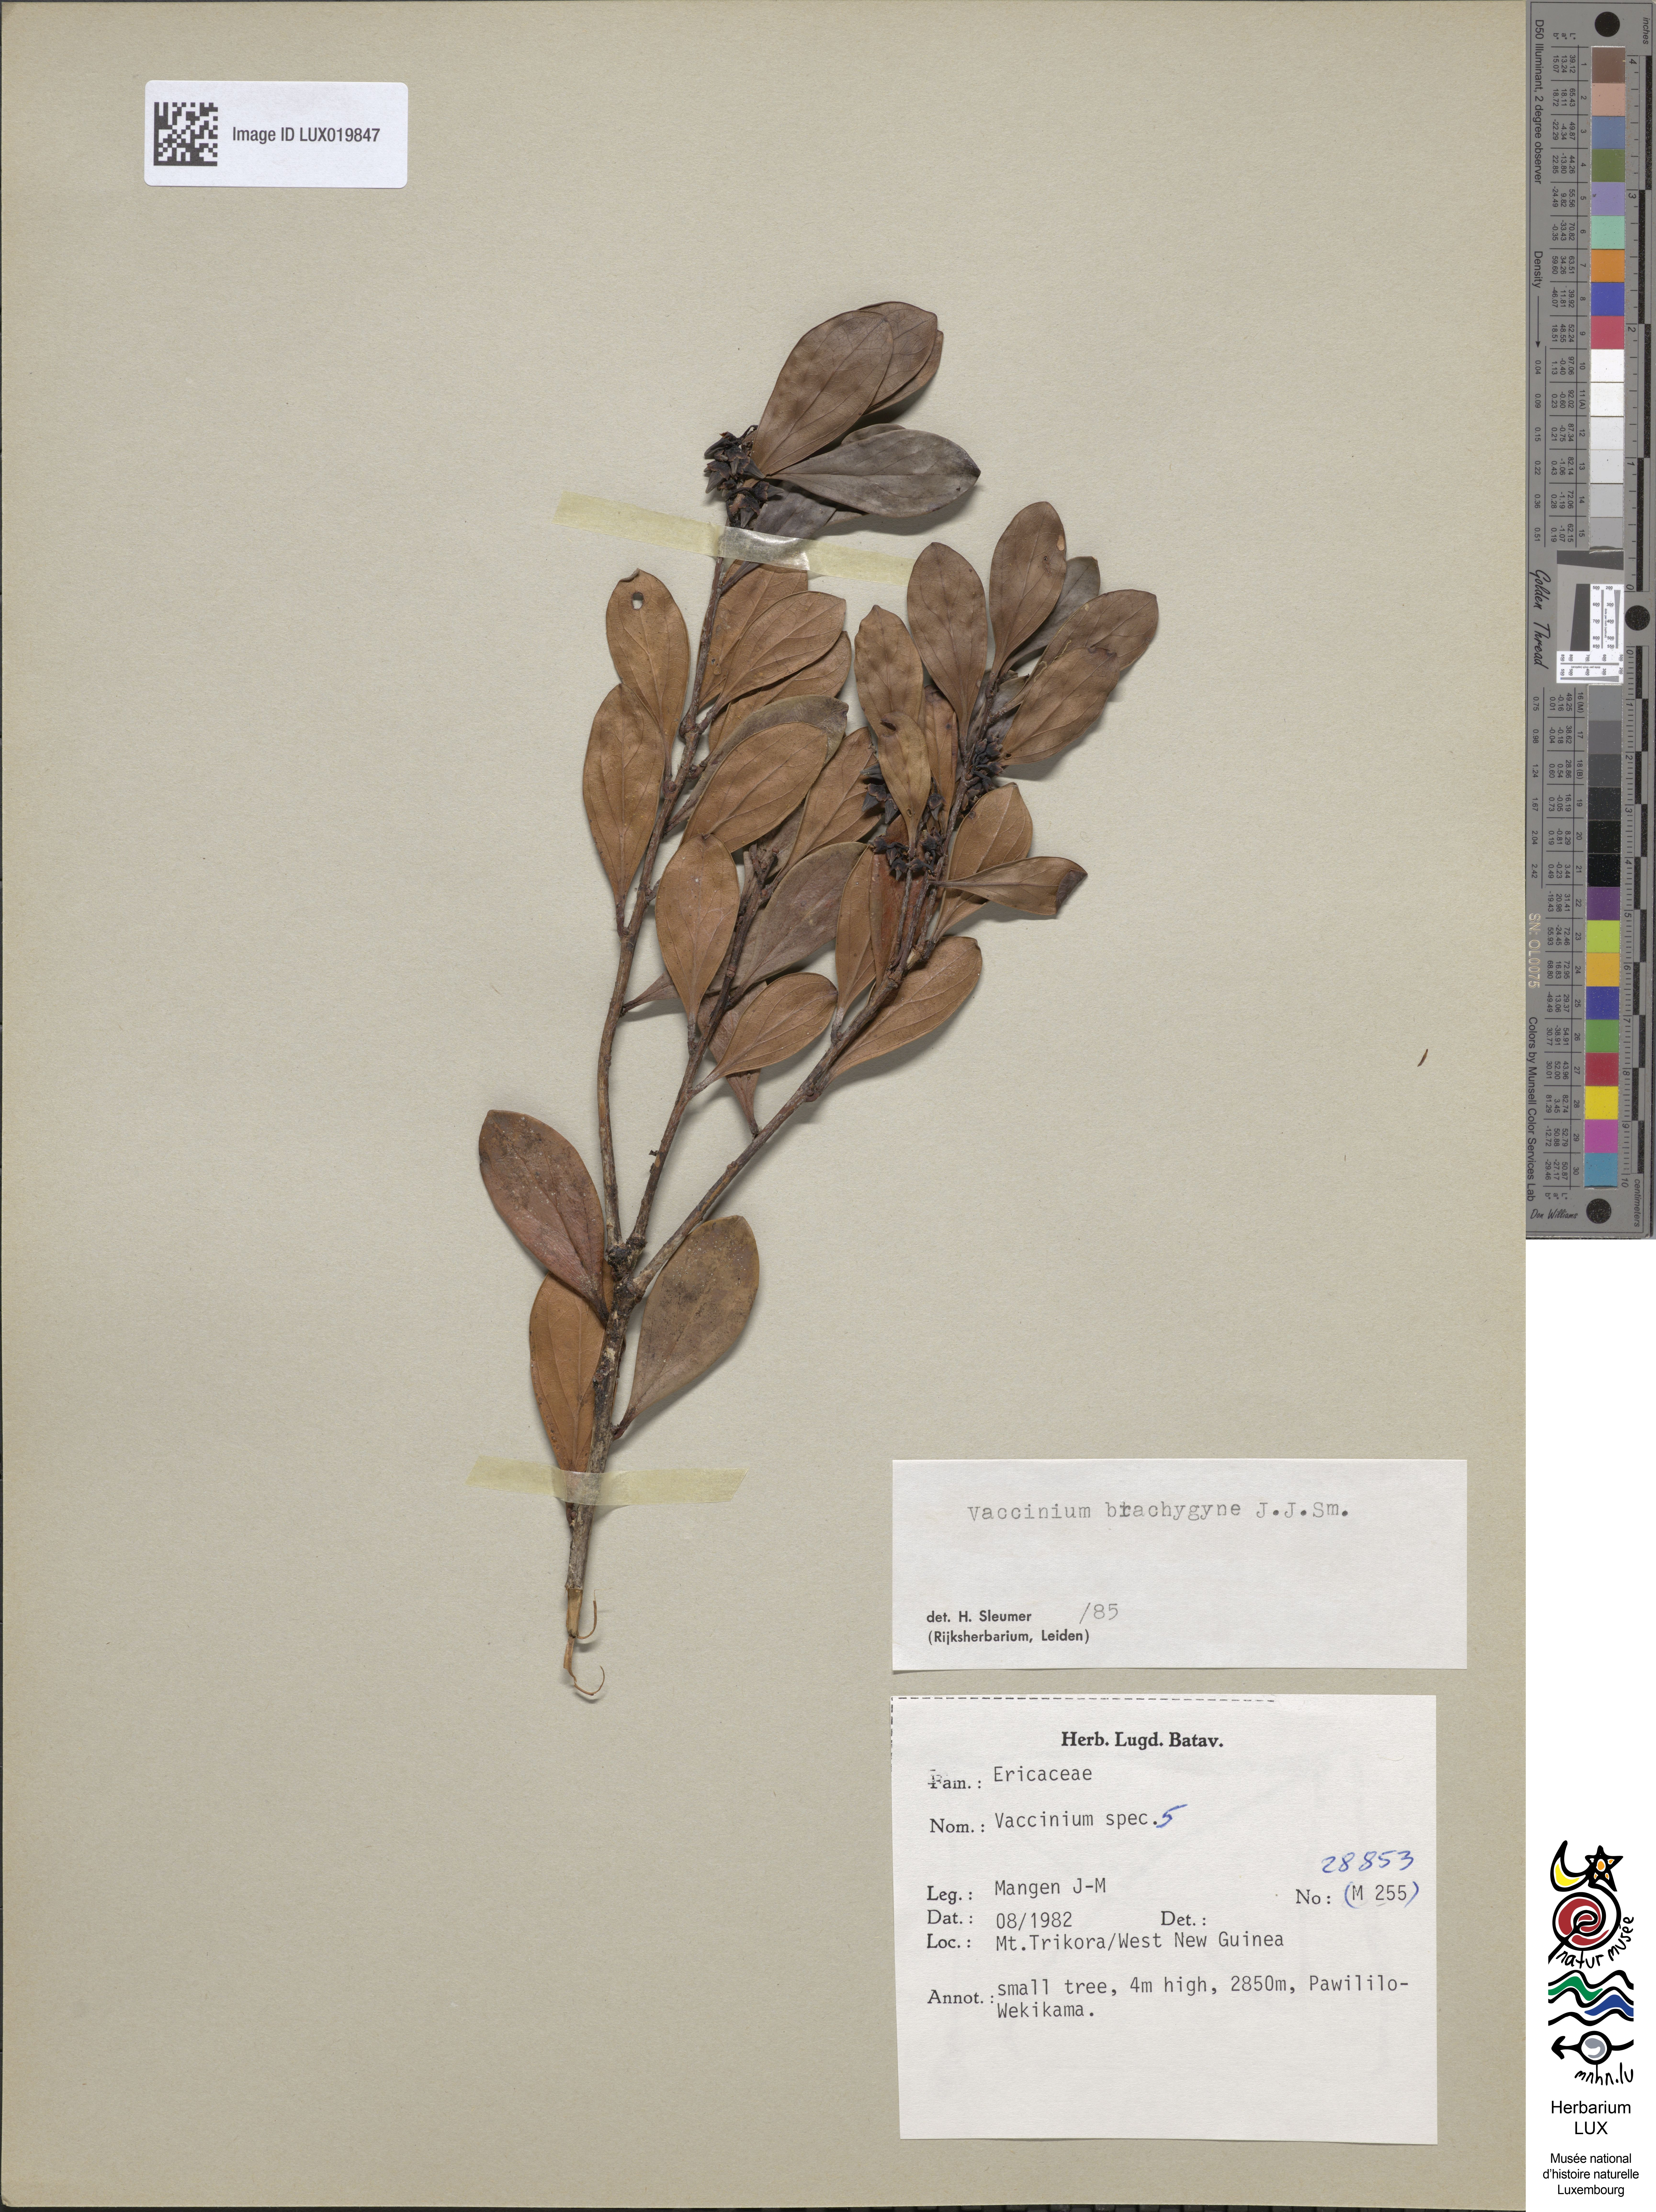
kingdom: Plantae
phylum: Tracheophyta
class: Magnoliopsida
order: Ericales
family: Ericaceae
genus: Vaccinium
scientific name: Vaccinium
